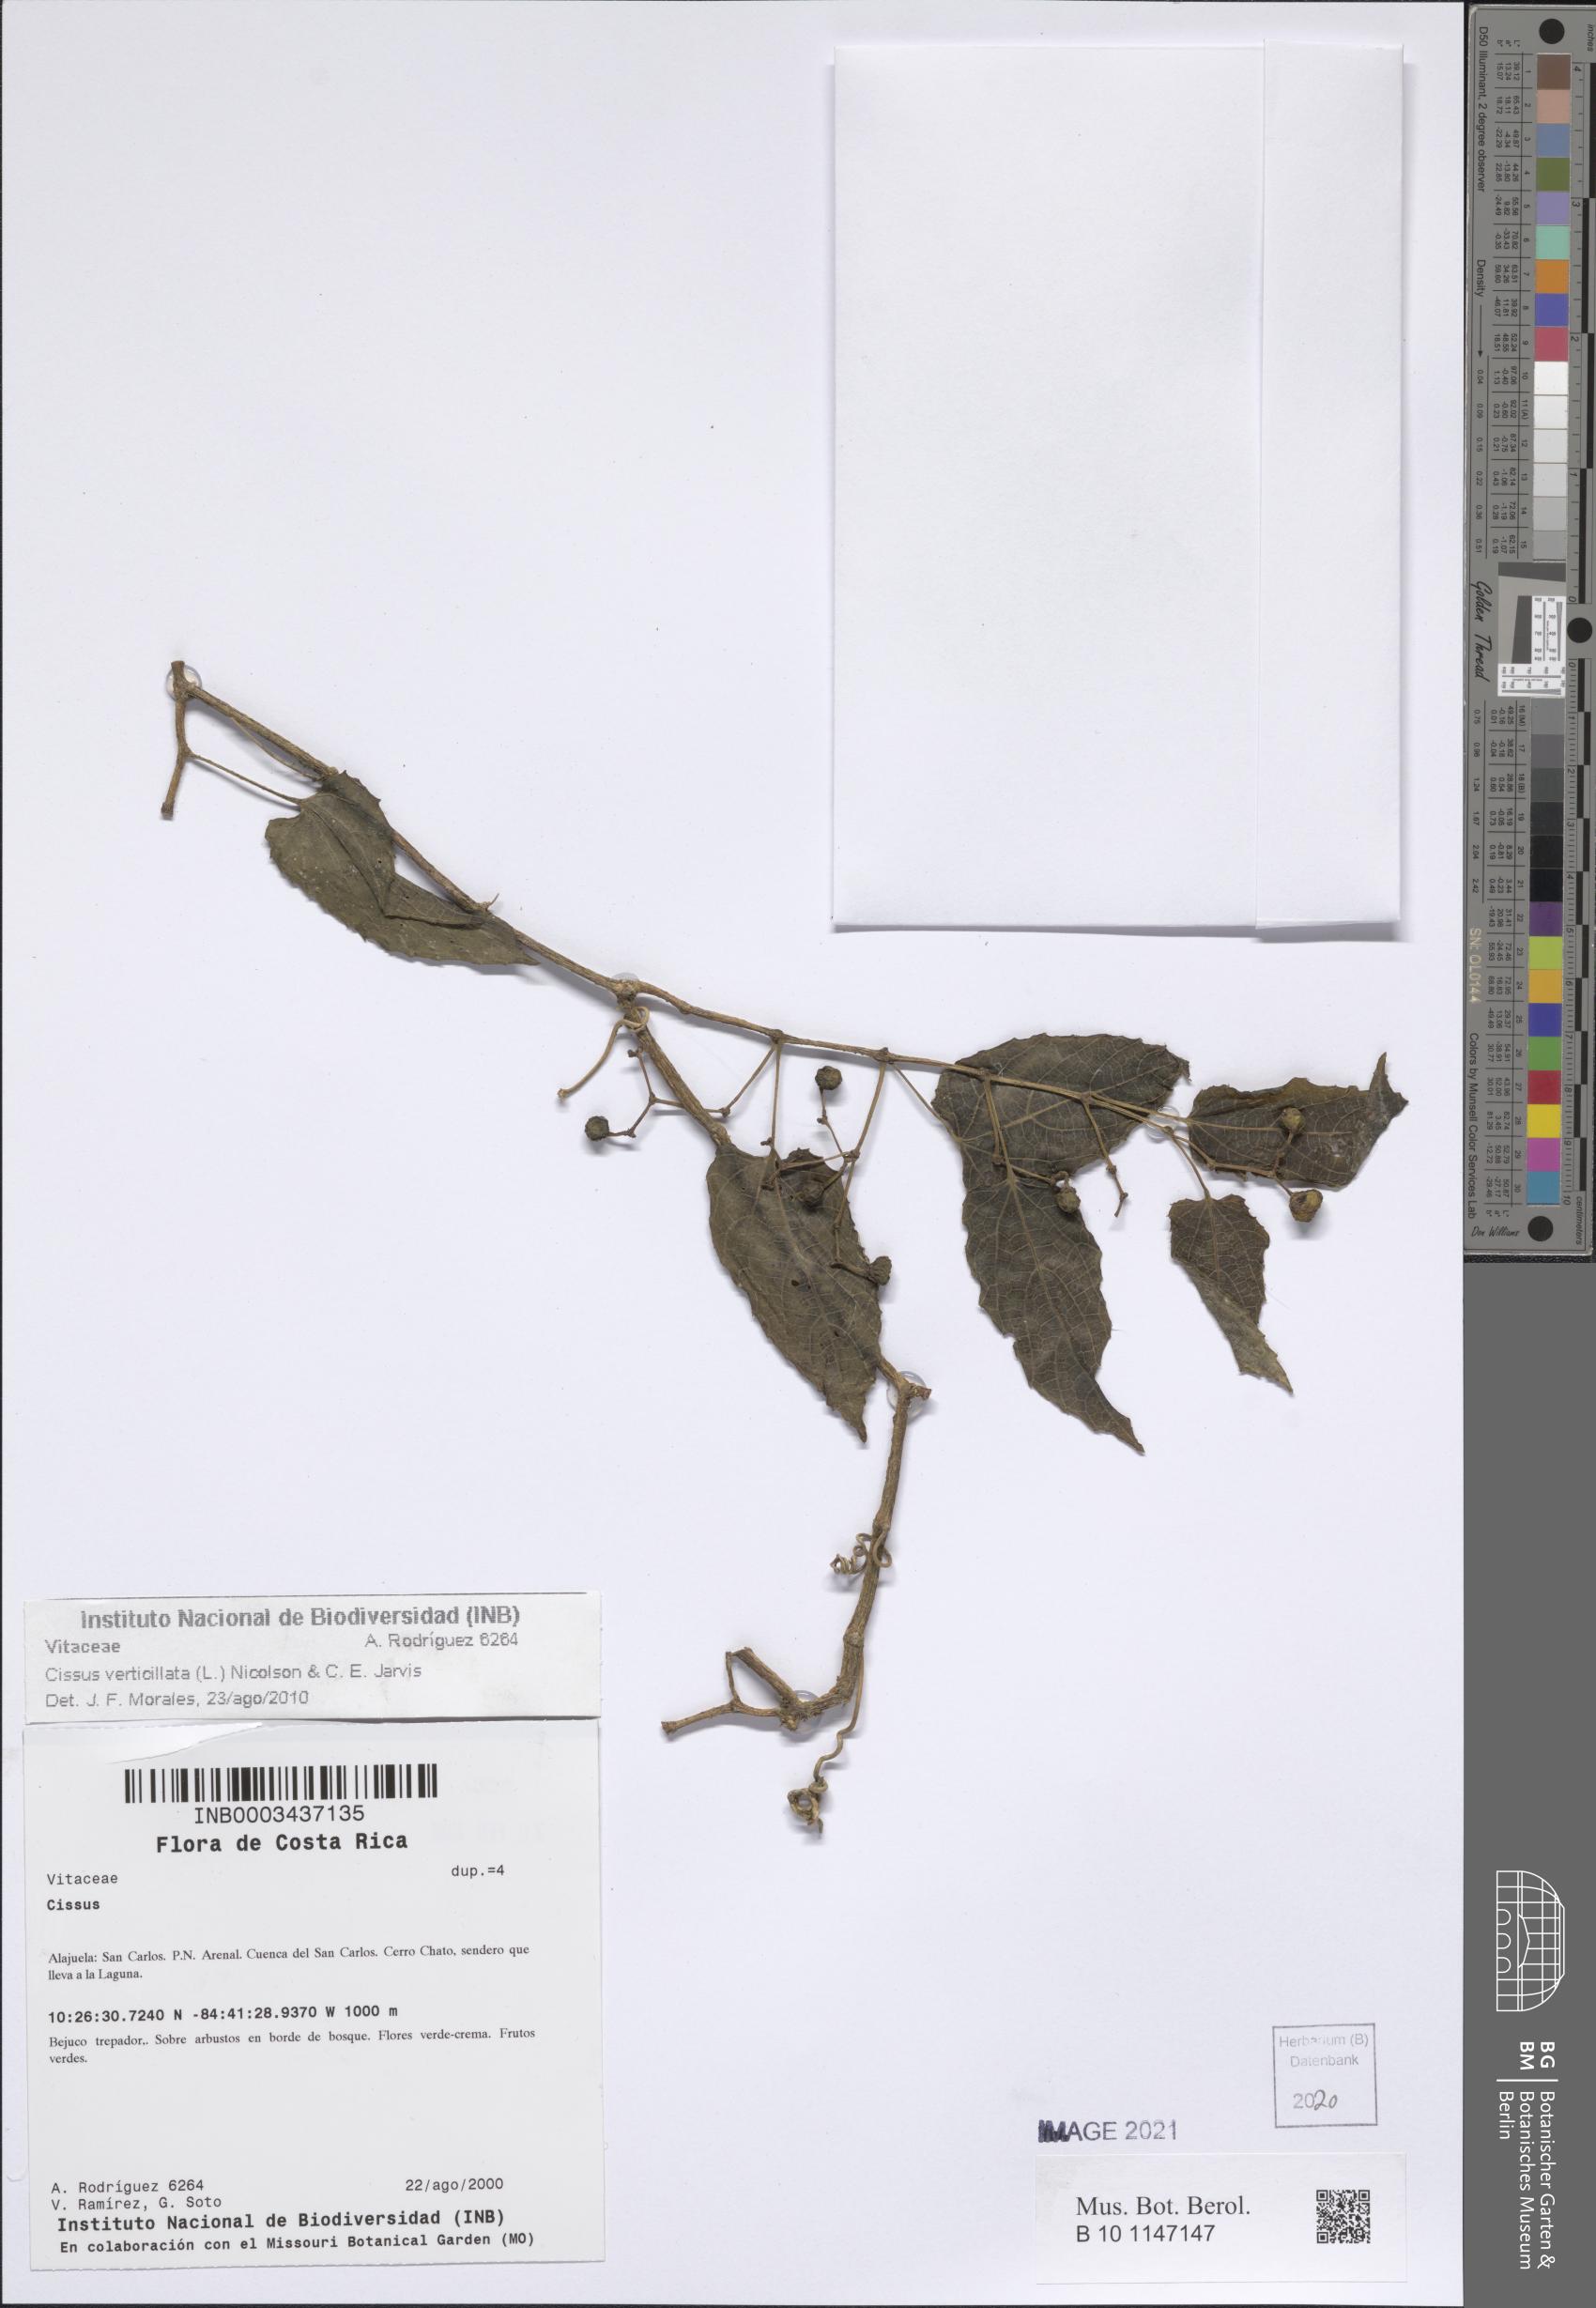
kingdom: Plantae
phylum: Tracheophyta
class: Magnoliopsida
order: Vitales
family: Vitaceae
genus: Cissus
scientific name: Cissus verticillata
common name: Princess vine
